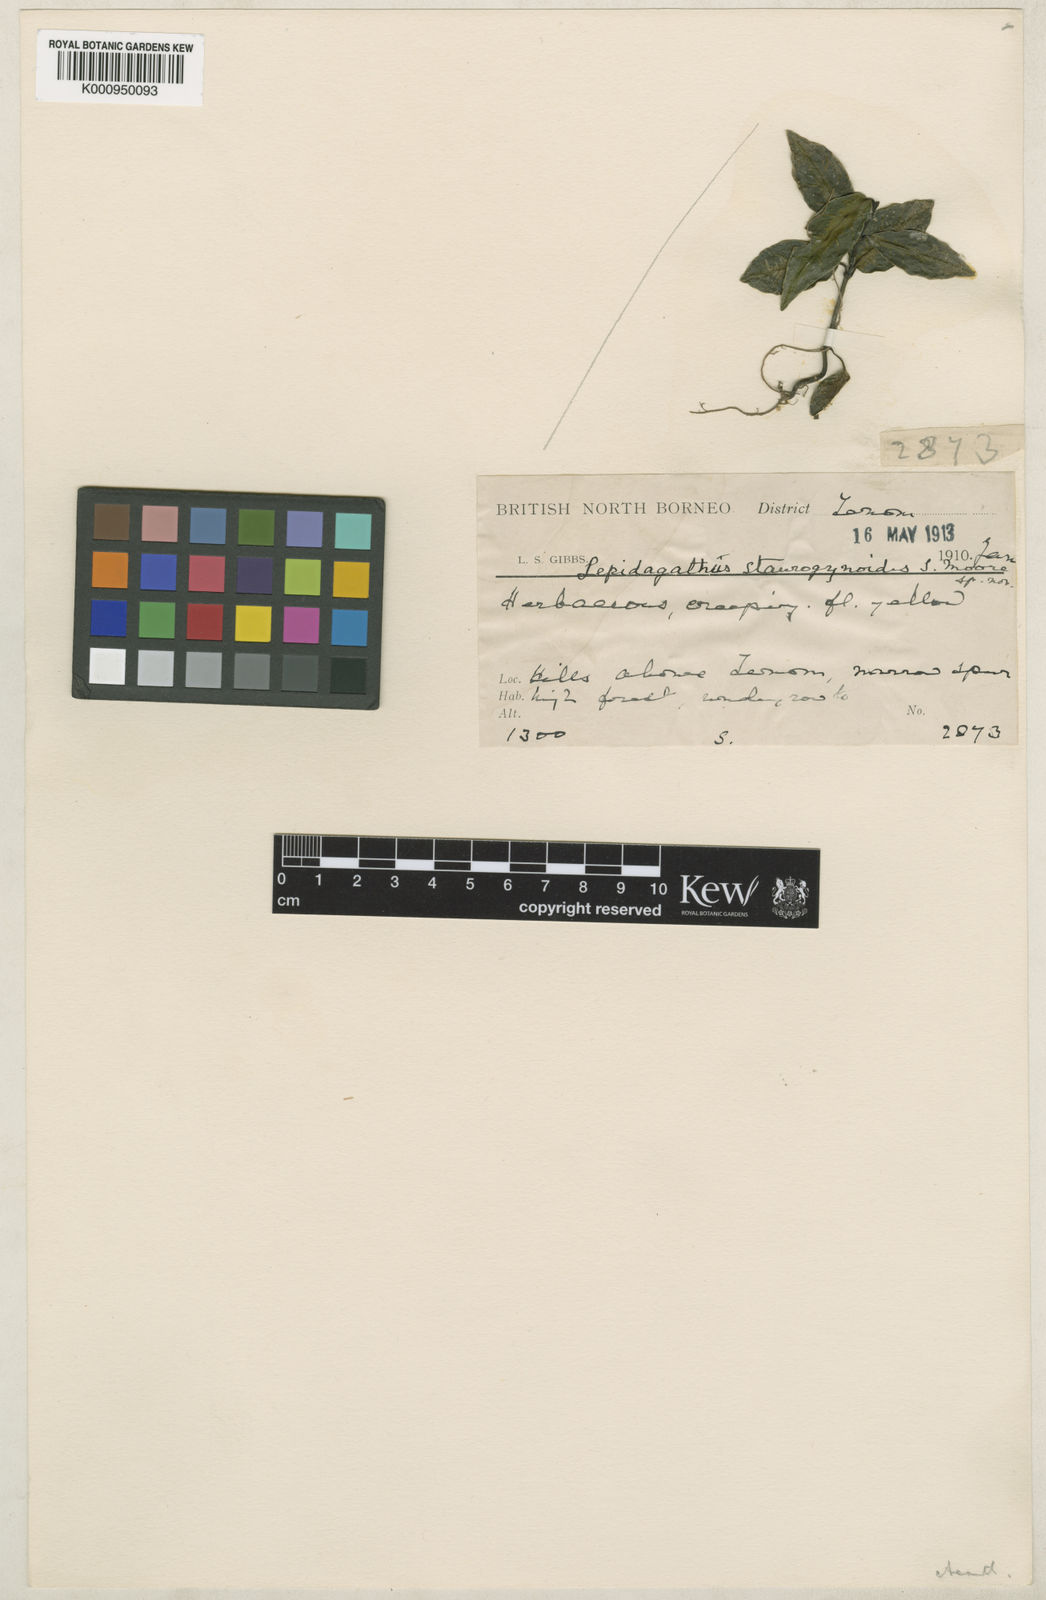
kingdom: Plantae
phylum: Tracheophyta
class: Magnoliopsida
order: Lamiales
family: Acanthaceae
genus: Lepidagathis
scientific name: Lepidagathis staurogynoides
